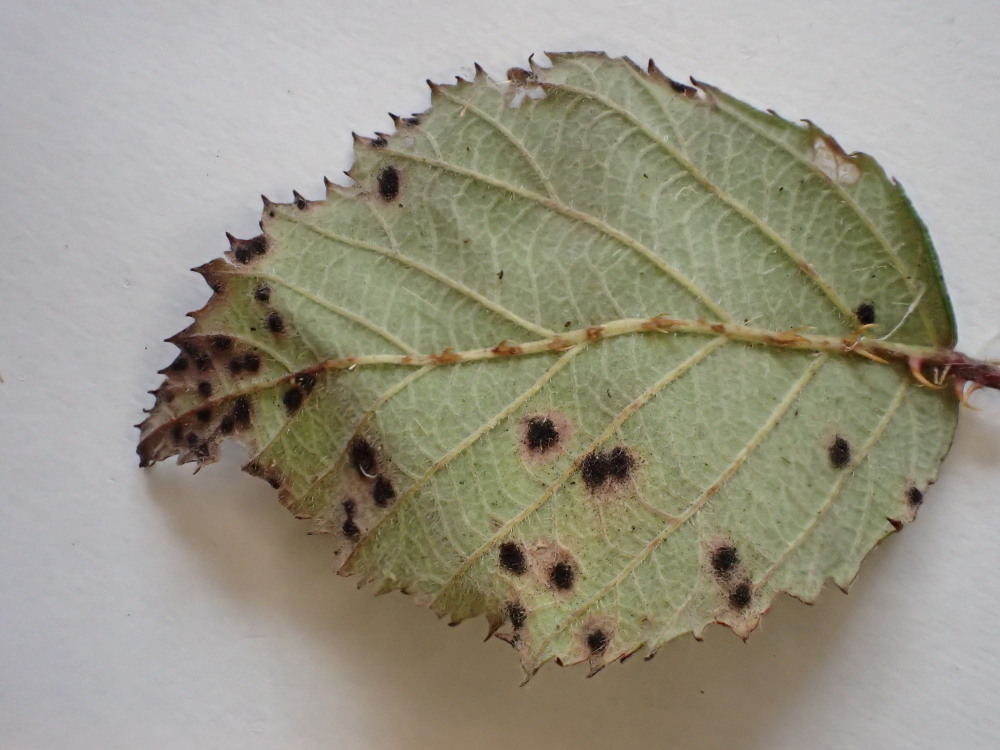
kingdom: Fungi
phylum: Basidiomycota
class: Pucciniomycetes
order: Pucciniales
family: Phragmidiaceae
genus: Phragmidium
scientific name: Phragmidium violaceum
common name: violet flercellerust
